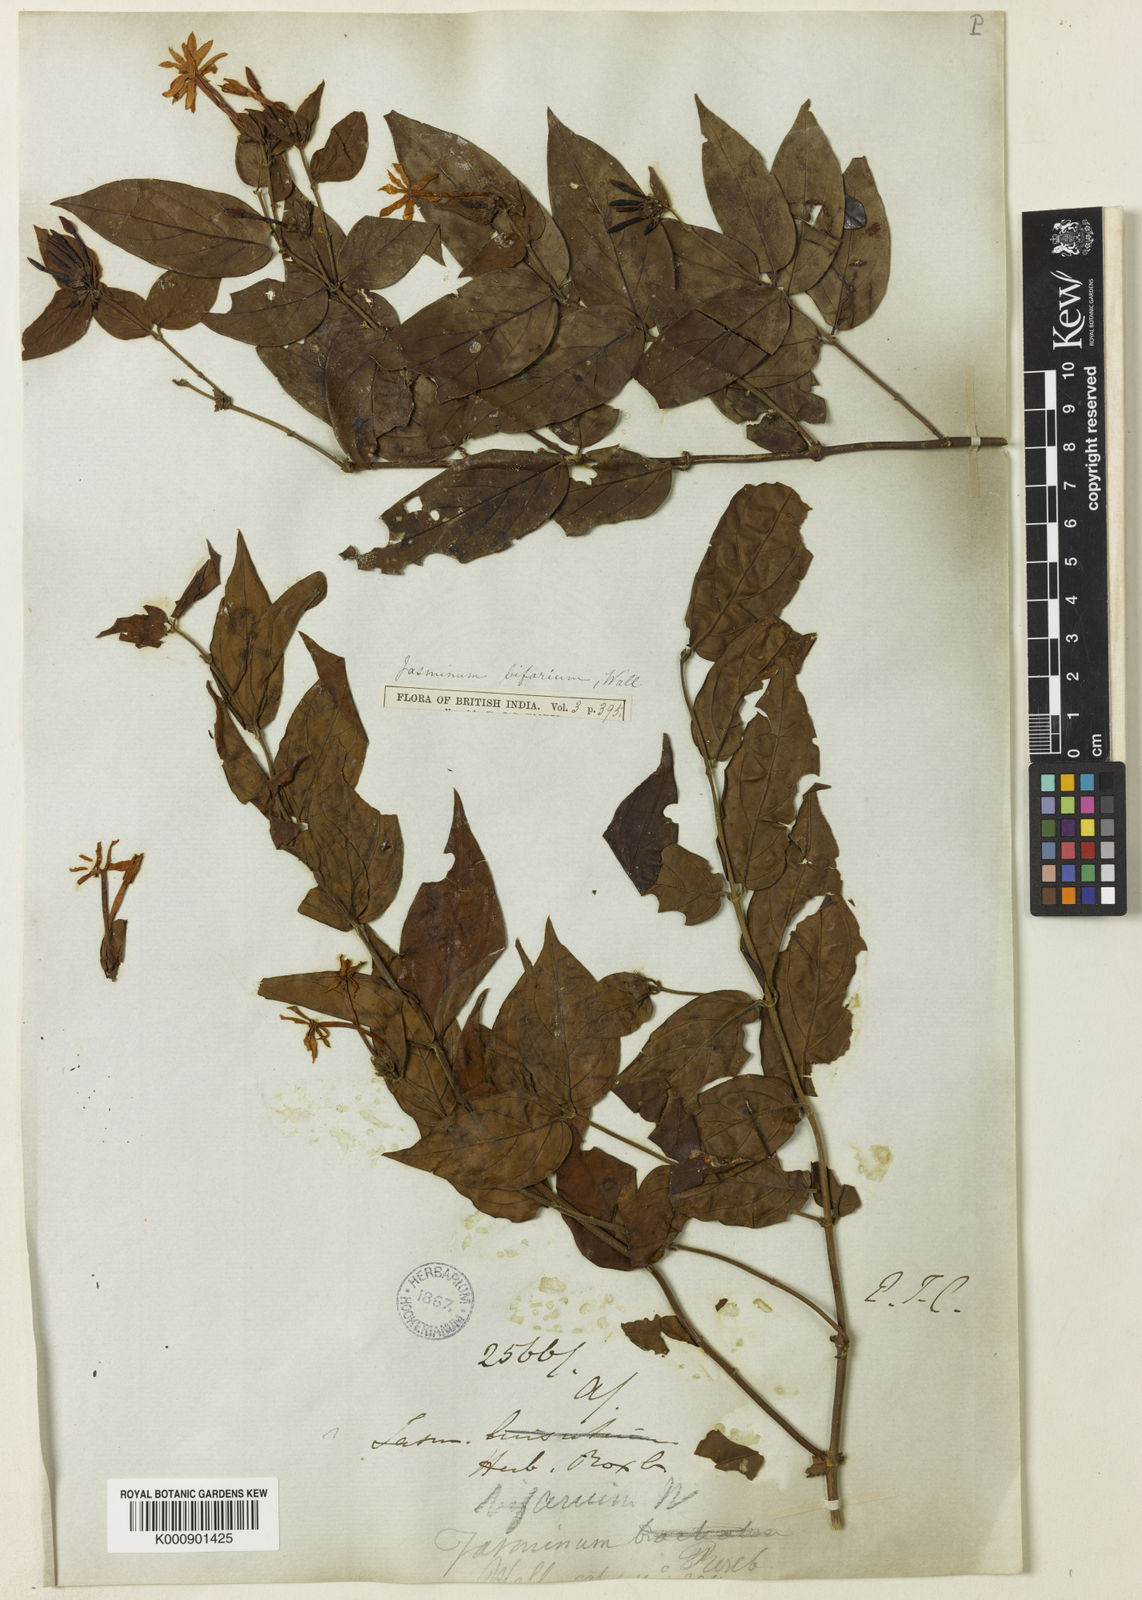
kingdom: Plantae
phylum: Tracheophyta
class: Magnoliopsida
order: Lamiales
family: Oleaceae
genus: Jasminum
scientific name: Jasminum elongatum
